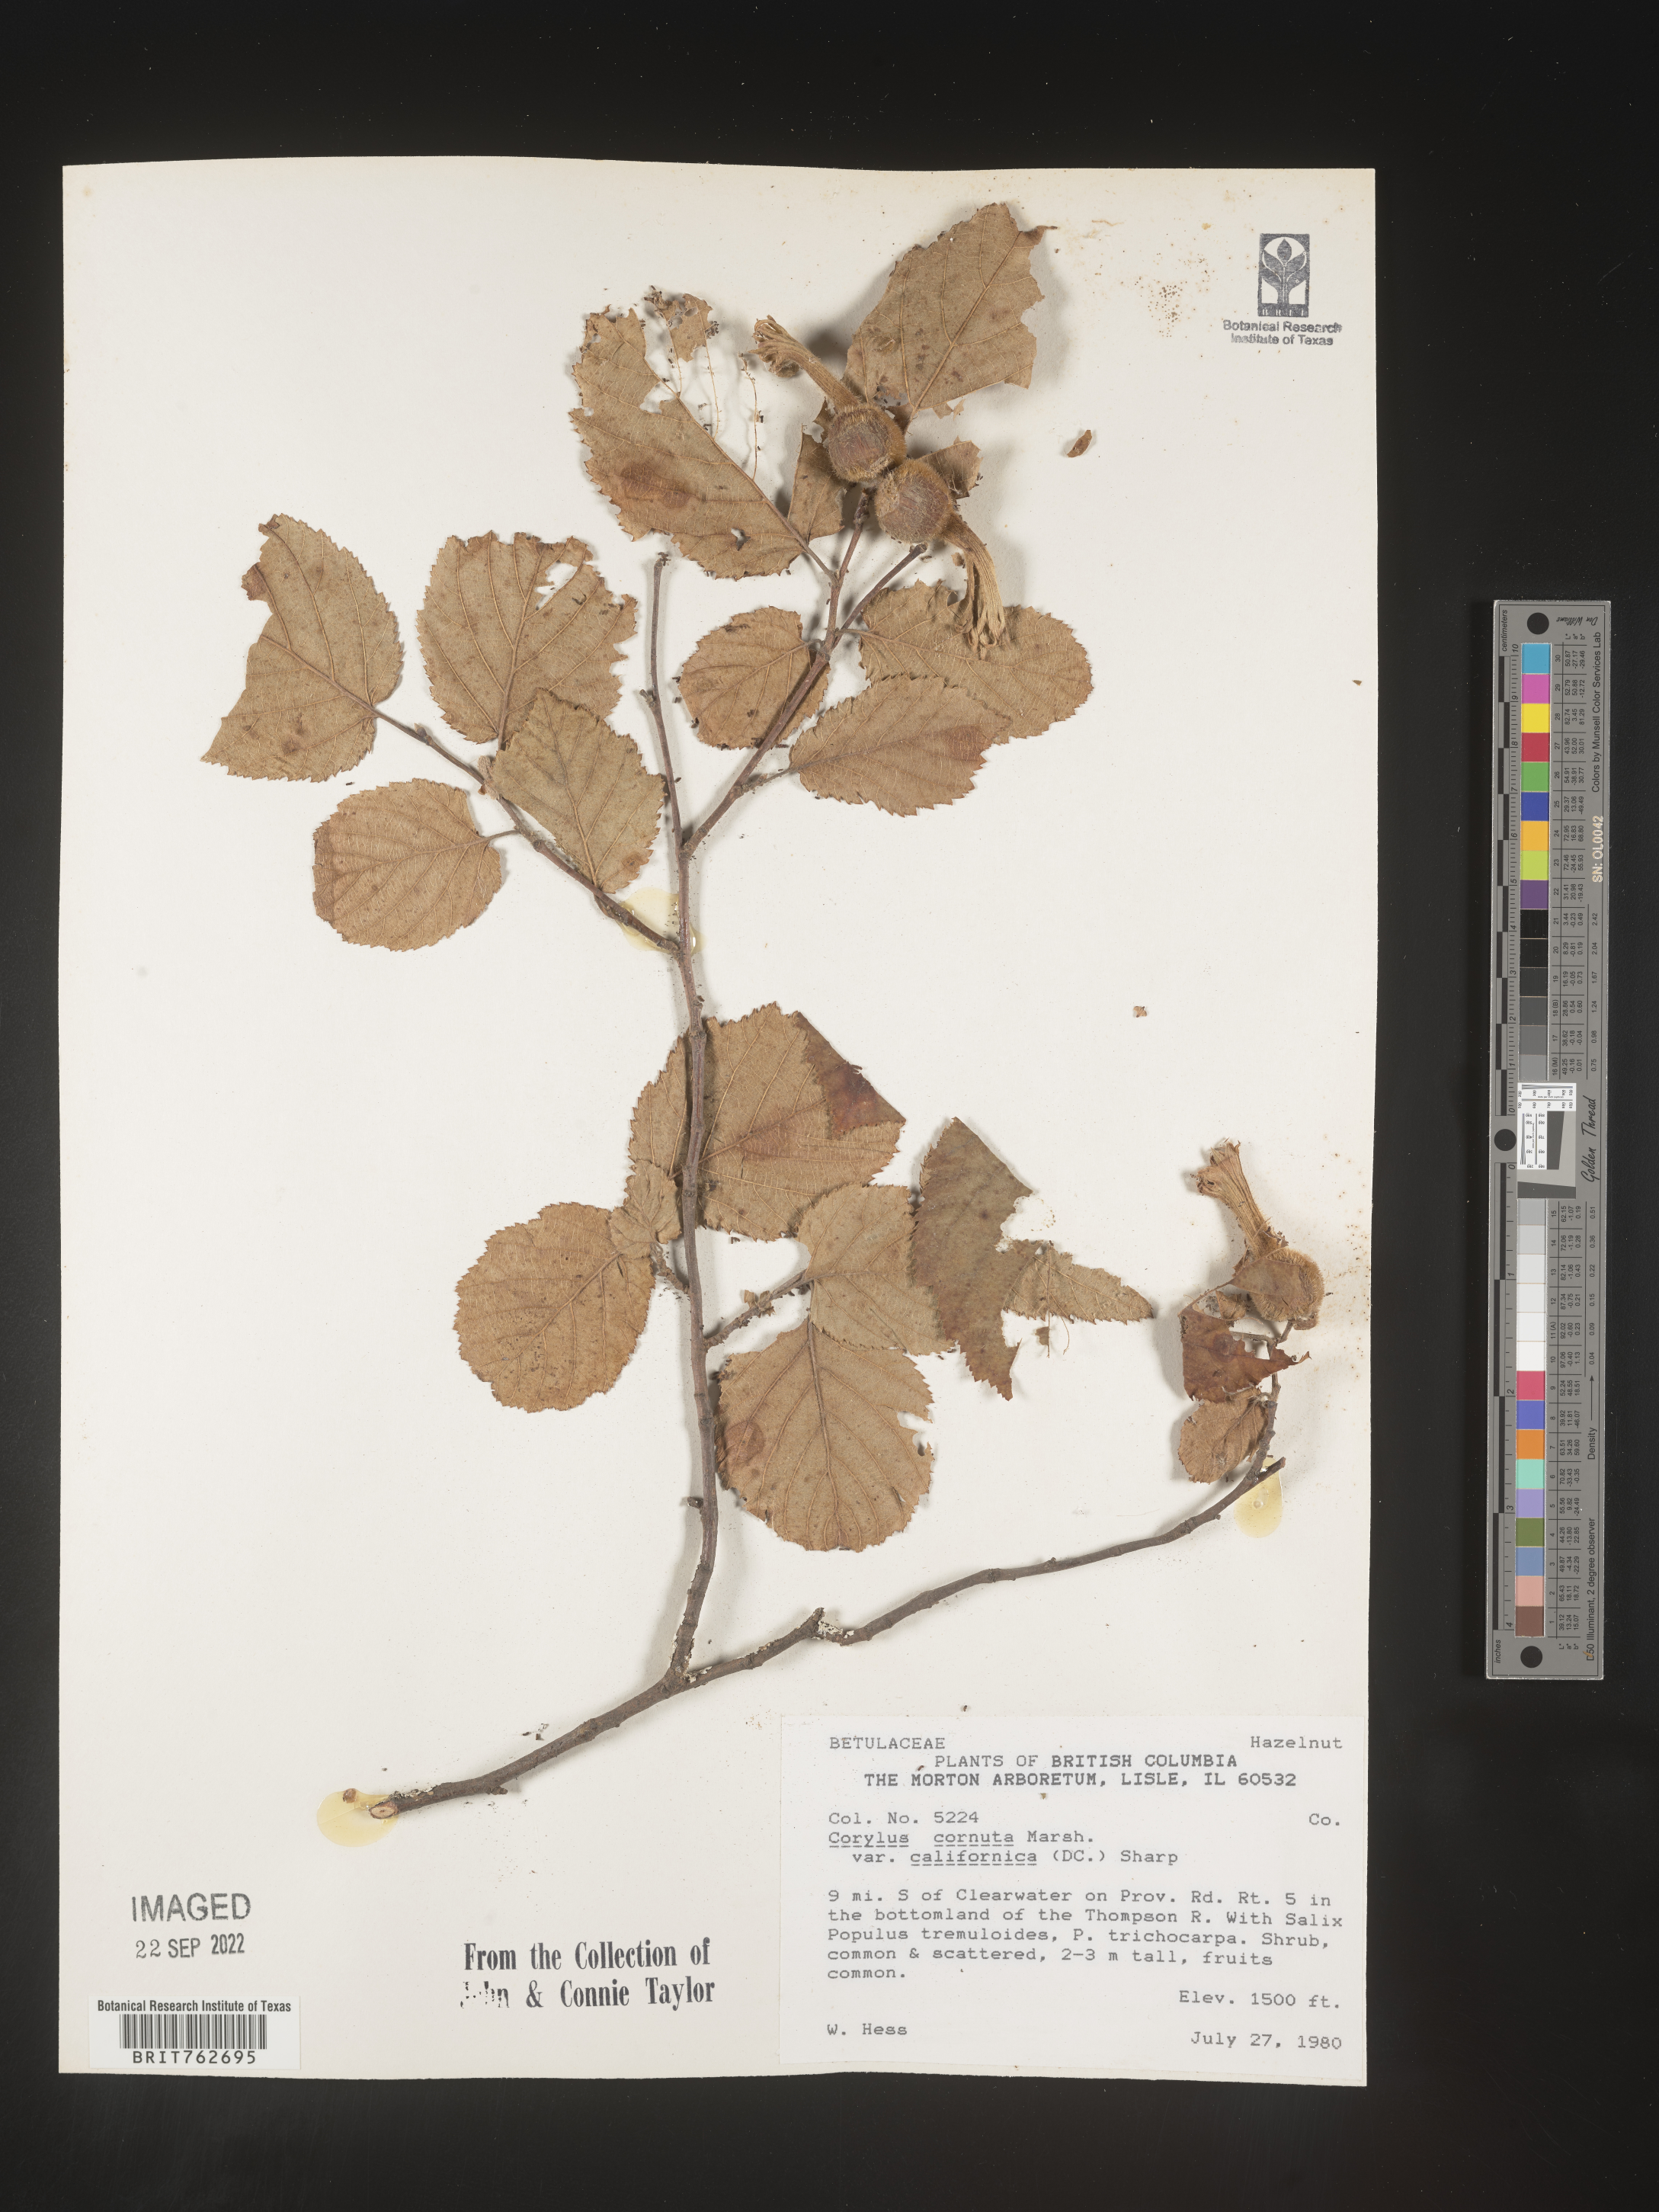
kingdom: Plantae
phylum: Tracheophyta
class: Magnoliopsida
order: Fagales
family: Betulaceae
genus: Corylus
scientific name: Corylus cornuta
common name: Beaked hazel
